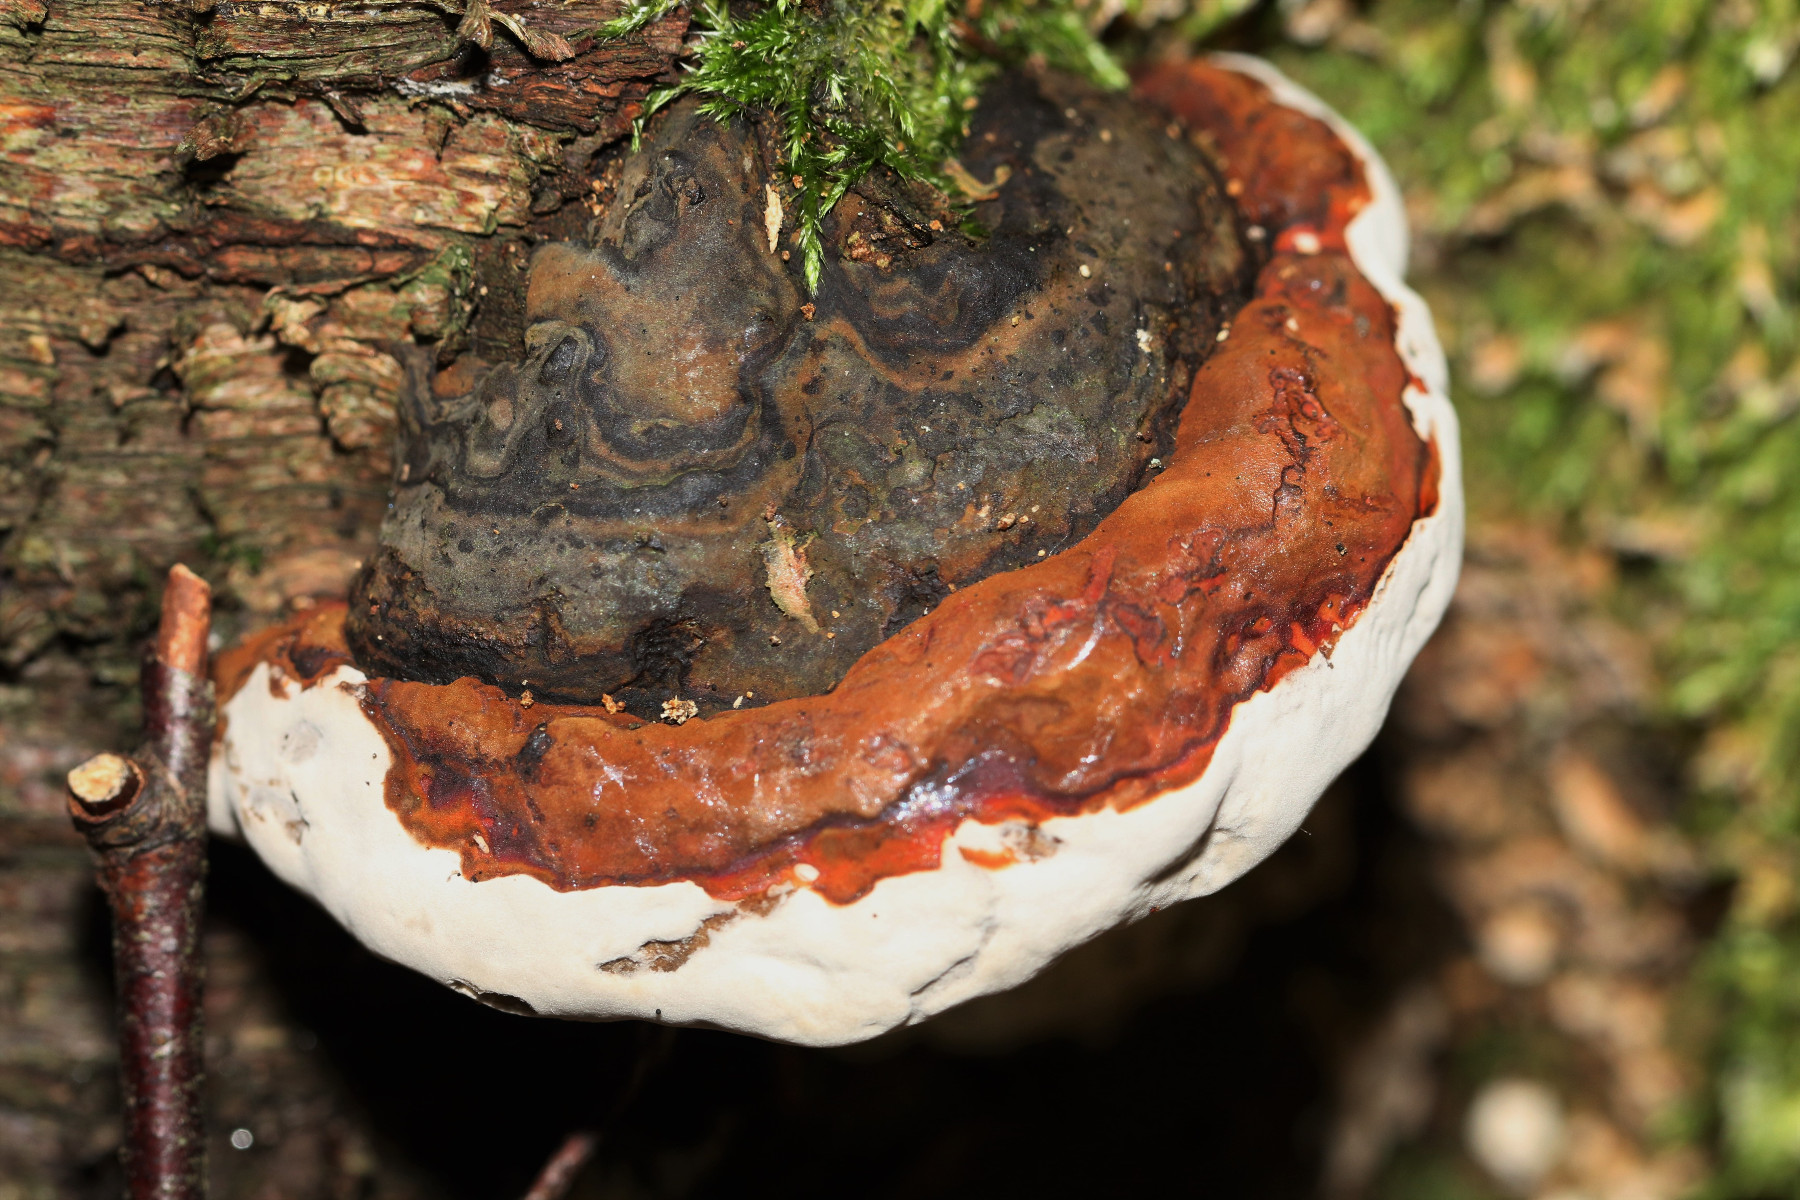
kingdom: Fungi
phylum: Basidiomycota
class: Agaricomycetes
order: Polyporales
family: Polyporaceae
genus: Ganoderma
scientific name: Ganoderma pfeifferi
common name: kobberrød lakporesvamp
